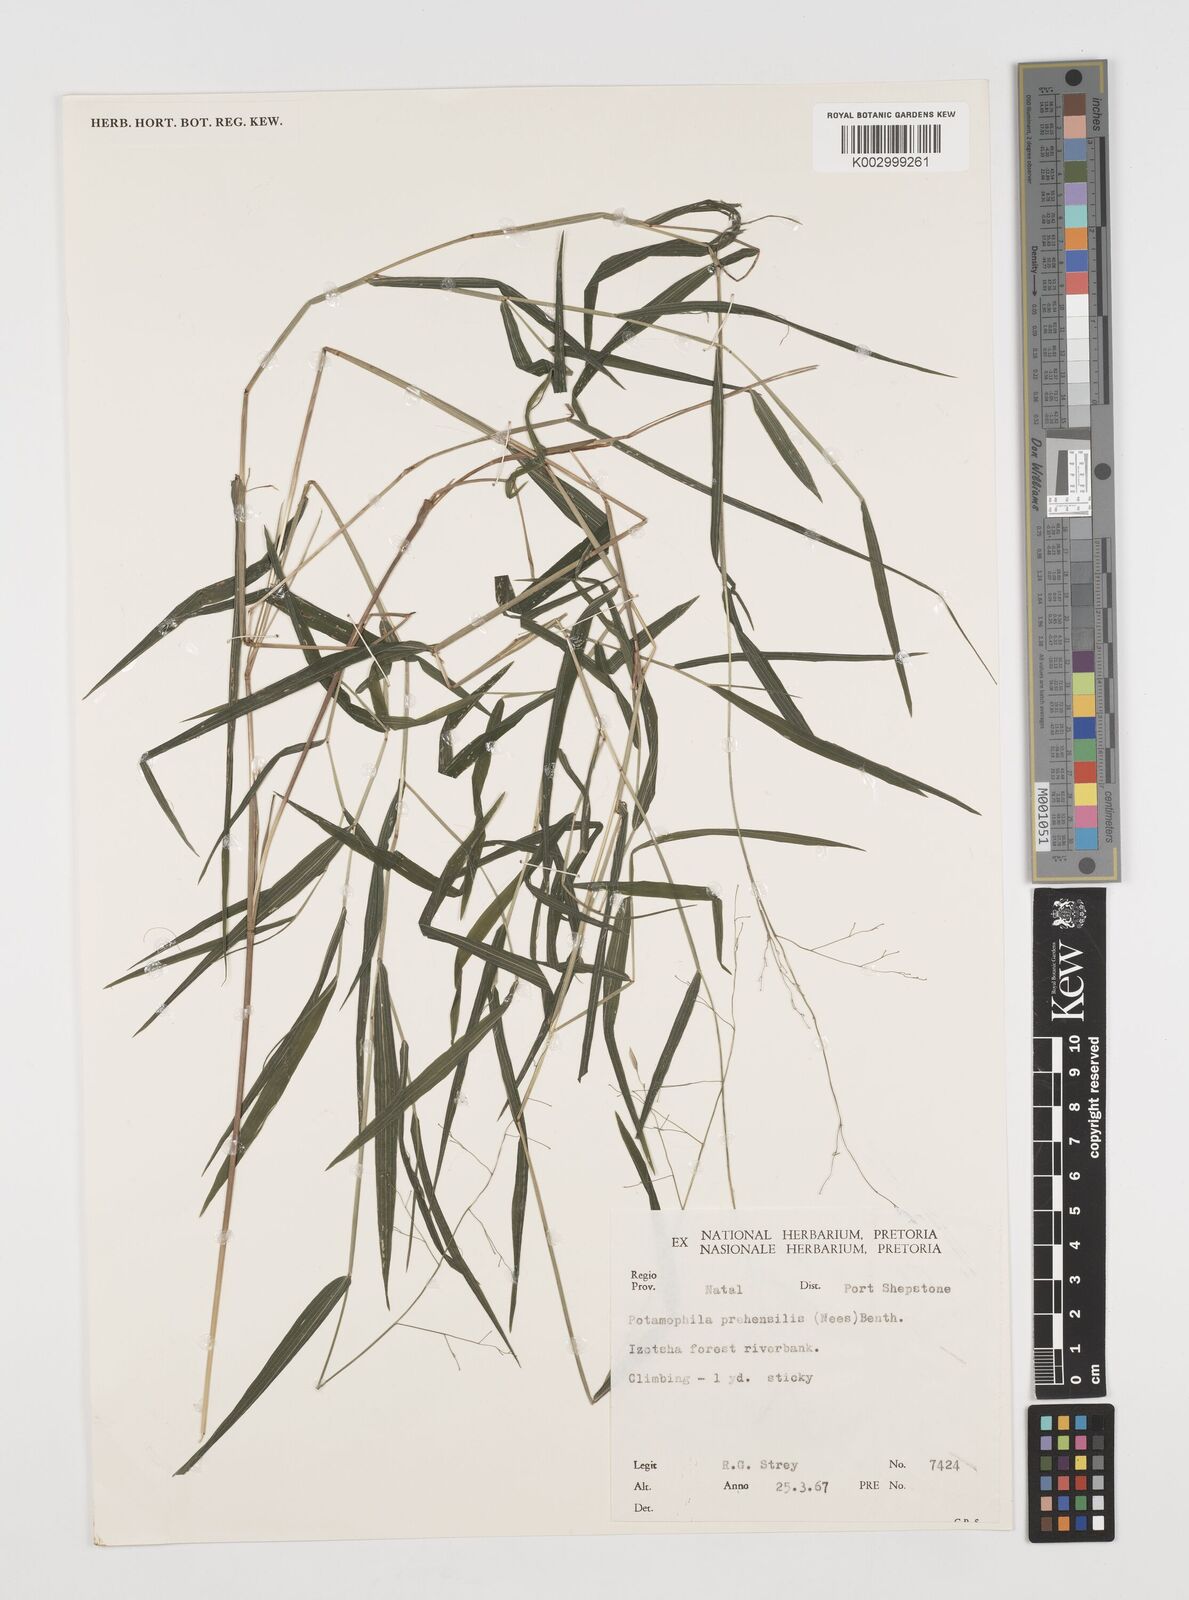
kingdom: Plantae
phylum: Tracheophyta
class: Liliopsida
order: Poales
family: Poaceae
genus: Prosphytochloa
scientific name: Prosphytochloa prehensilis
